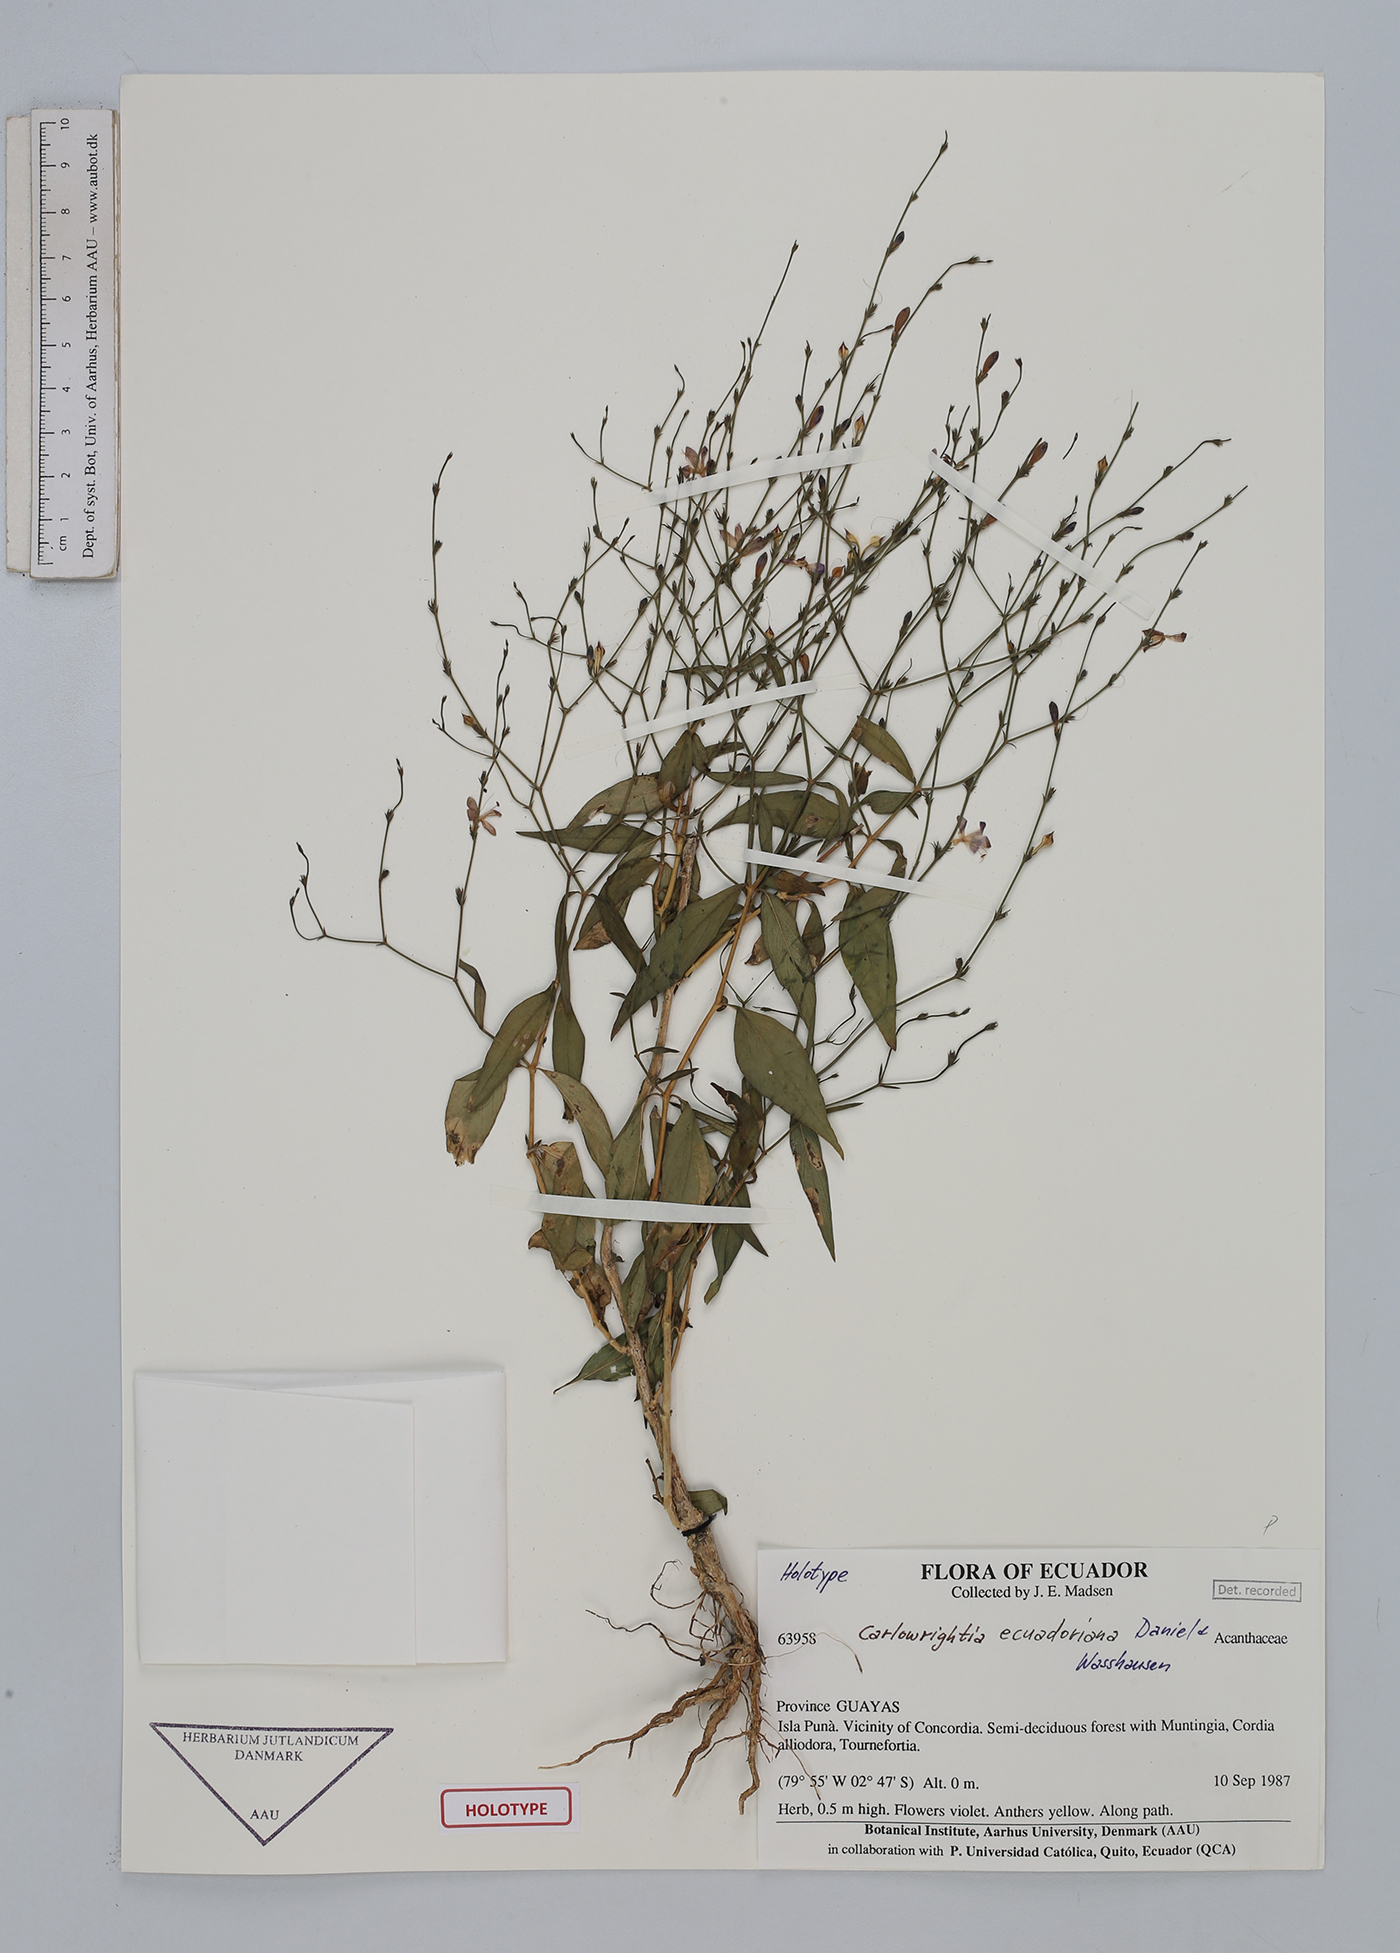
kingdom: Plantae
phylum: Tracheophyta
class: Magnoliopsida
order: Lamiales
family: Acanthaceae
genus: Carlowrightia
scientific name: Carlowrightia ecuadoriana
